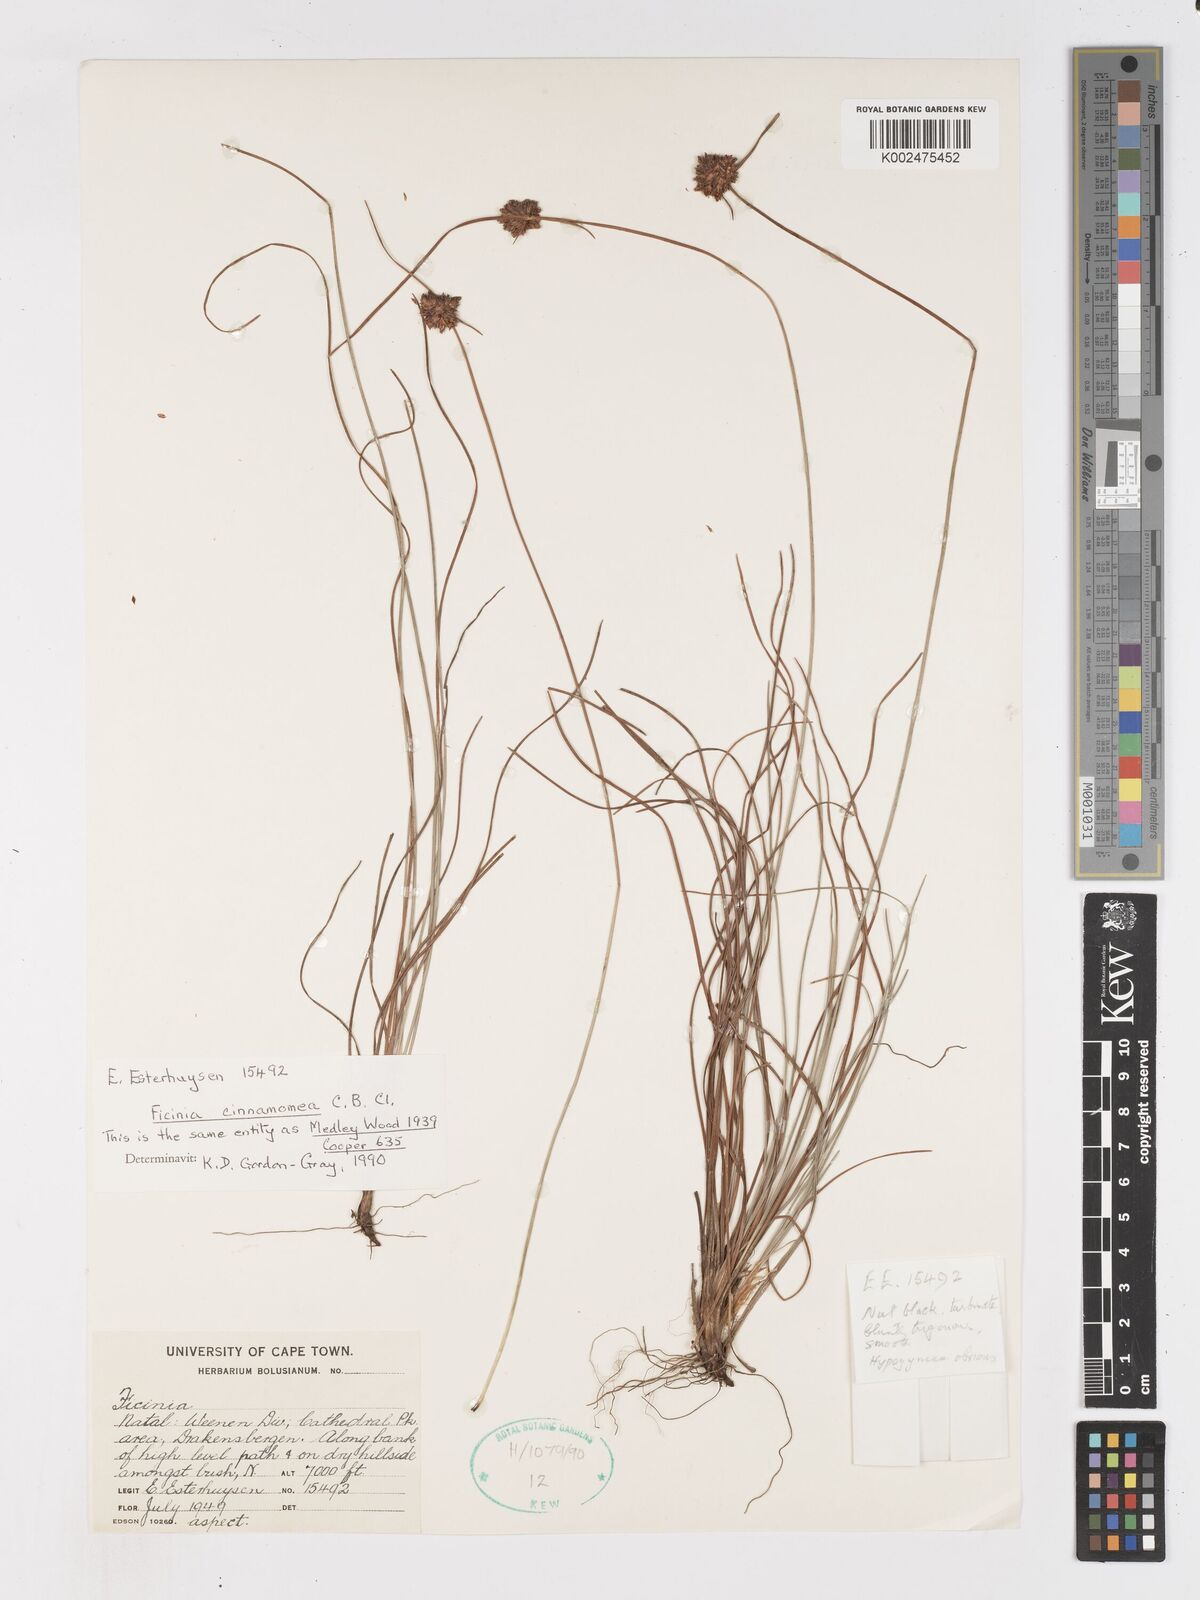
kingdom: Plantae
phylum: Tracheophyta
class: Liliopsida
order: Poales
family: Cyperaceae
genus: Ficinia
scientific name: Ficinia cinnamomea
